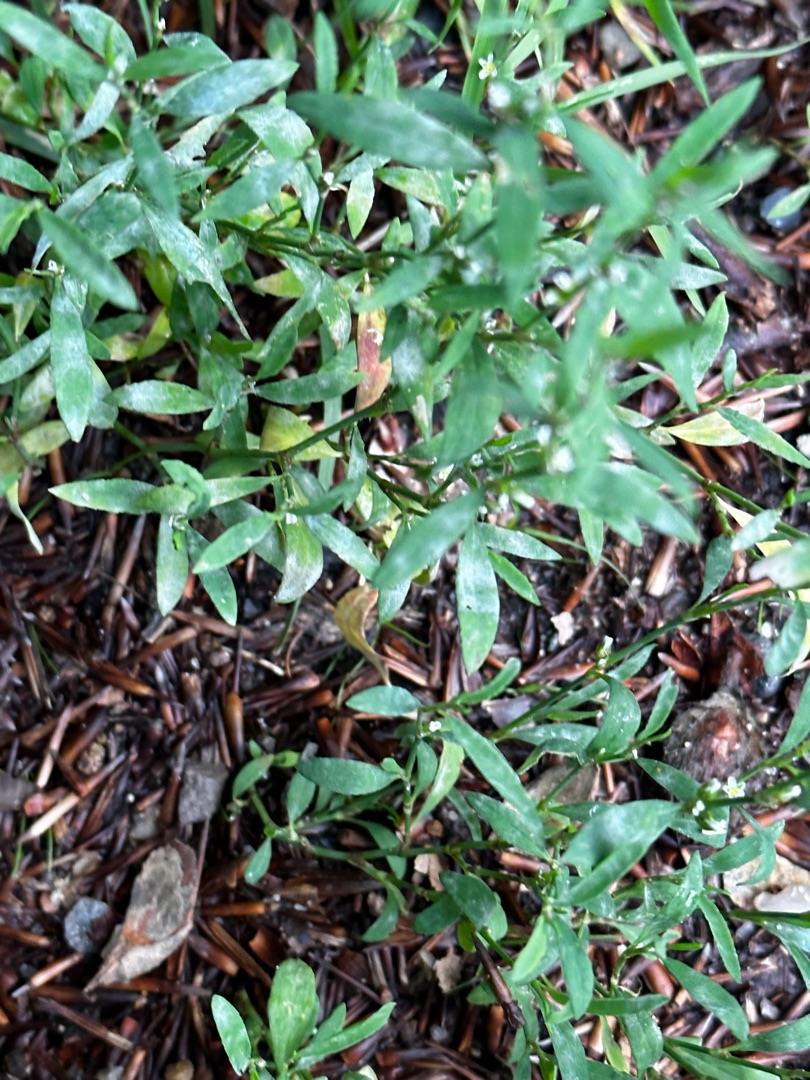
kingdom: Plantae
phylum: Tracheophyta
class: Magnoliopsida
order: Caryophyllales
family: Polygonaceae
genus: Polygonum
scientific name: Polygonum aviculare
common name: Vej-pileurt
